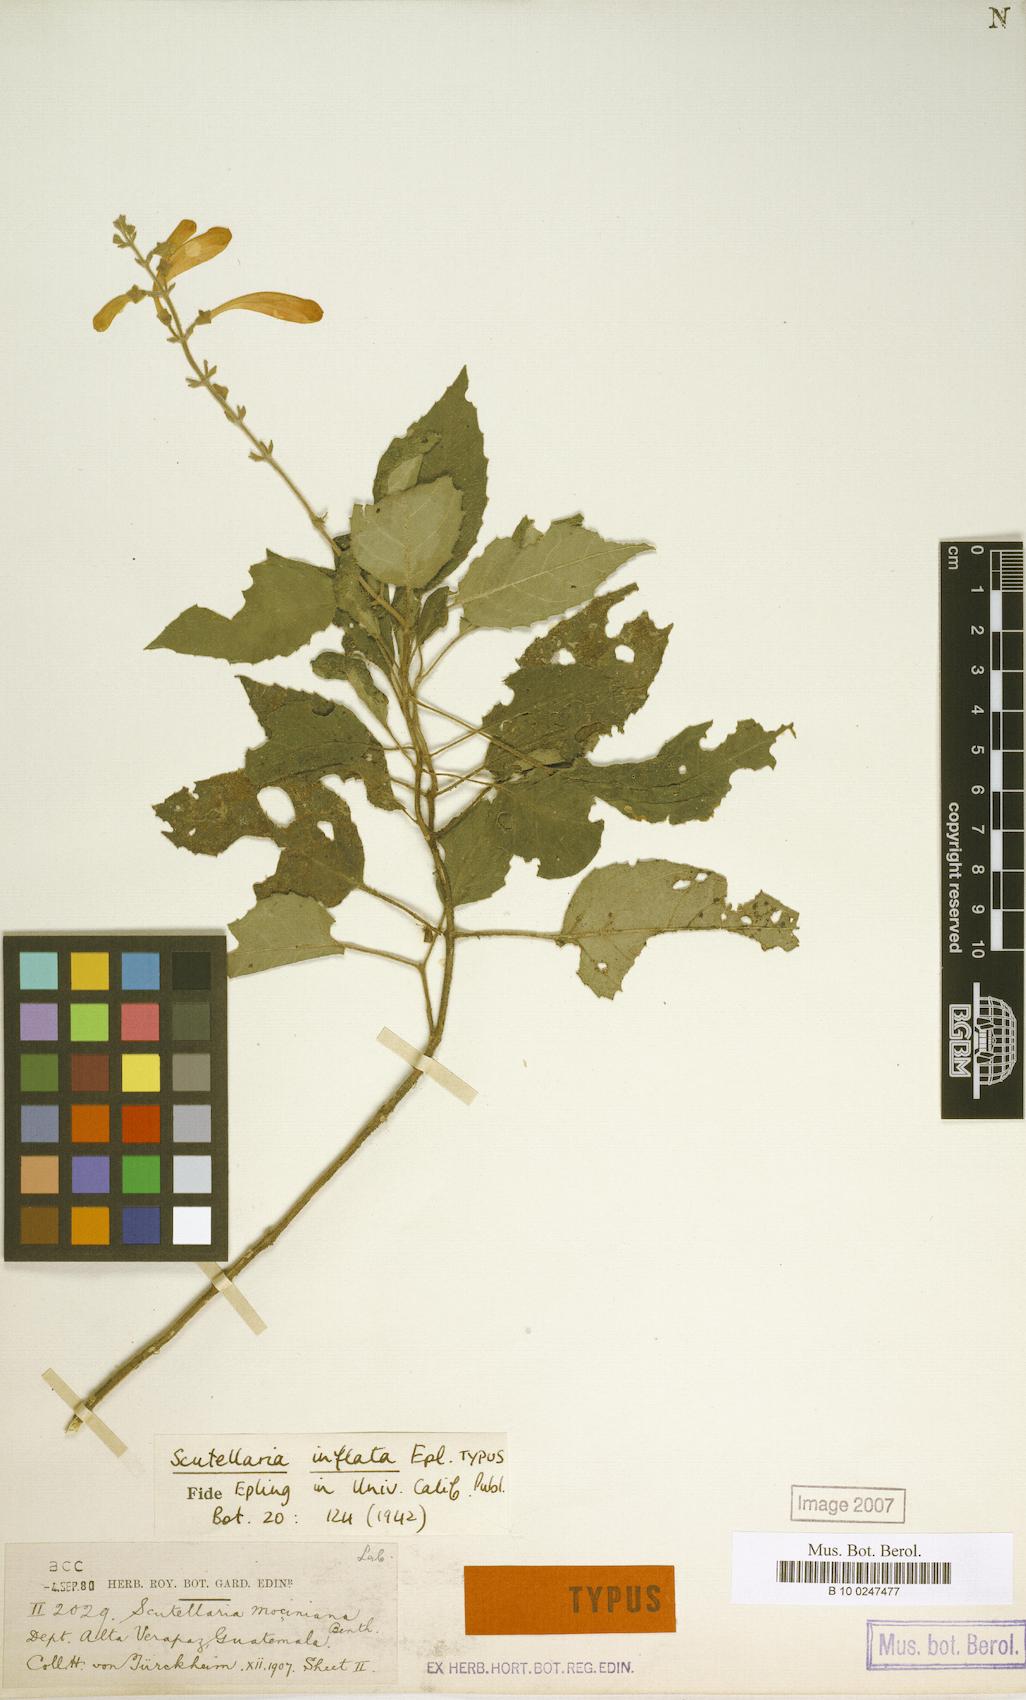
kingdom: Plantae
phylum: Tracheophyta
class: Magnoliopsida
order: Lamiales
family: Lamiaceae
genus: Scutellaria
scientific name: Scutellaria inflata
